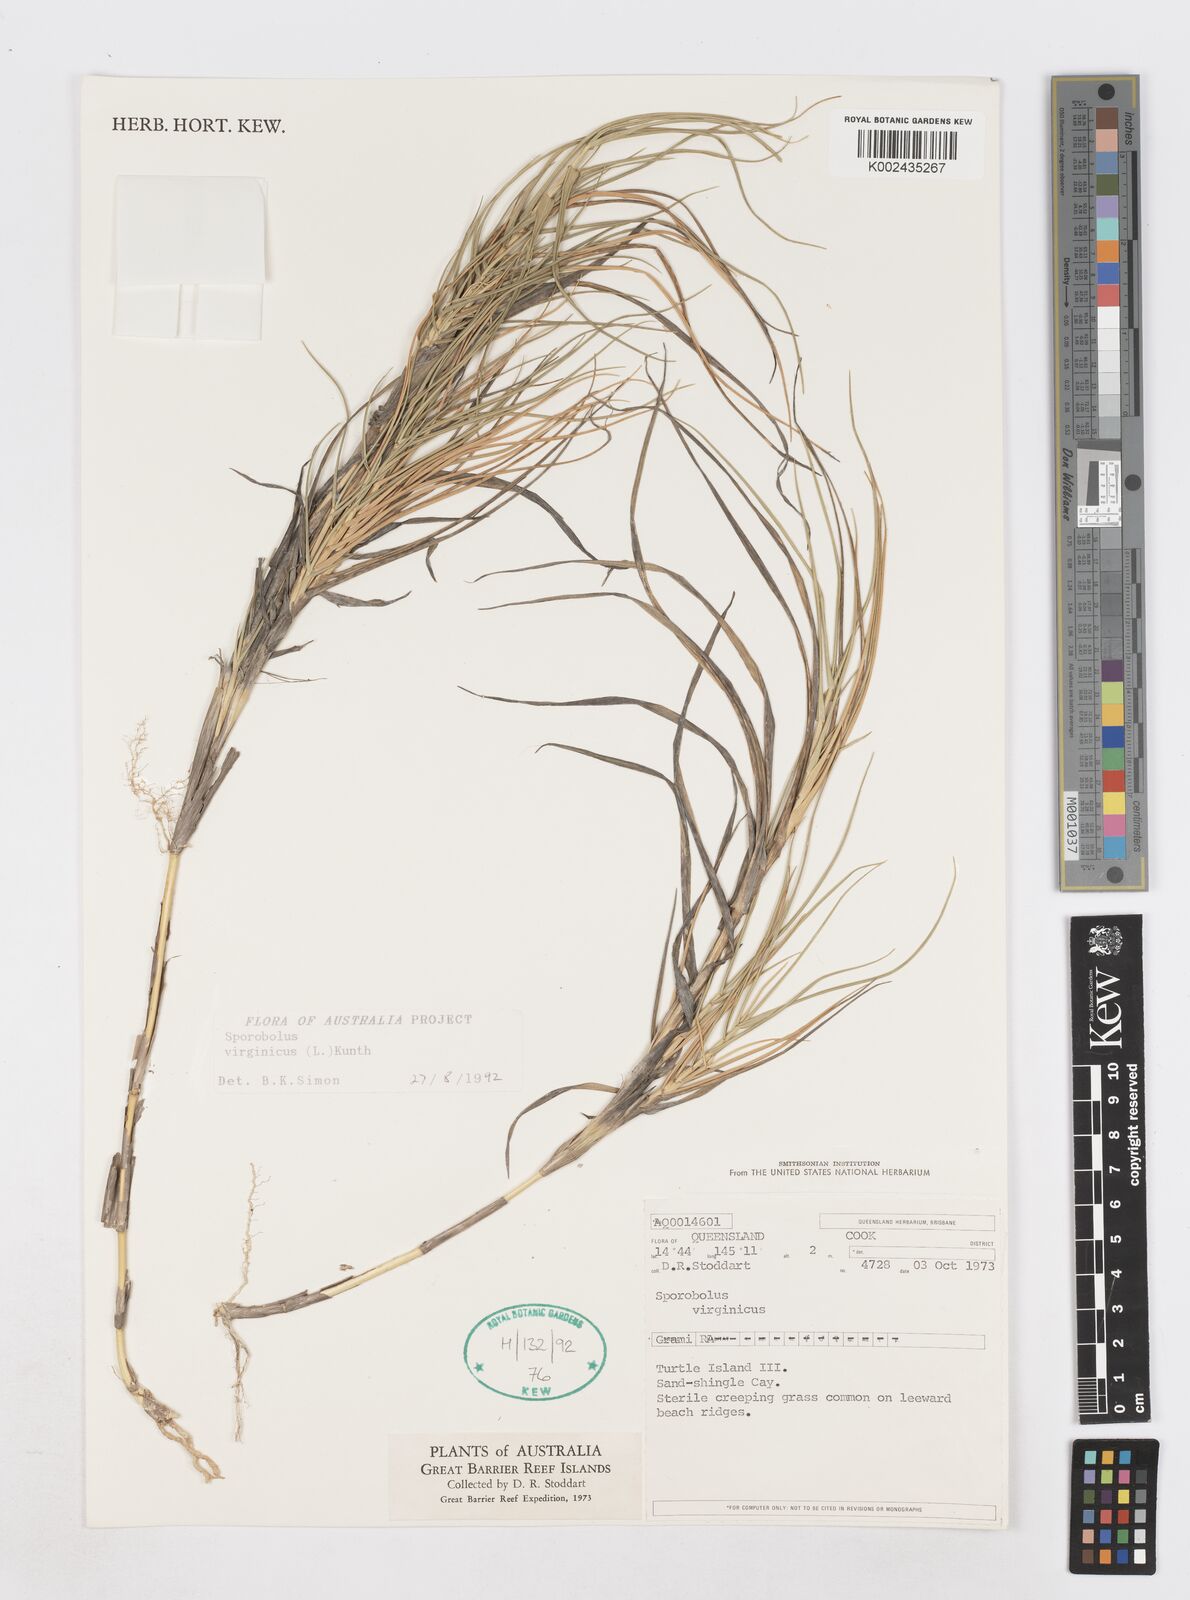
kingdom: Plantae
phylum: Tracheophyta
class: Liliopsida
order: Poales
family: Poaceae
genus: Sporobolus
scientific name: Sporobolus virginicus
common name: Beach dropseed
